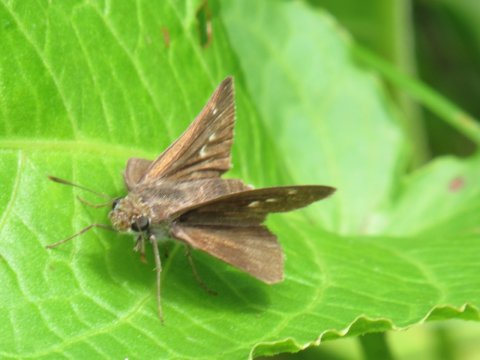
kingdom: Animalia
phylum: Arthropoda
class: Insecta
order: Lepidoptera
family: Hesperiidae
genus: Euphyes
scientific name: Euphyes vestris
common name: Dun Skipper
